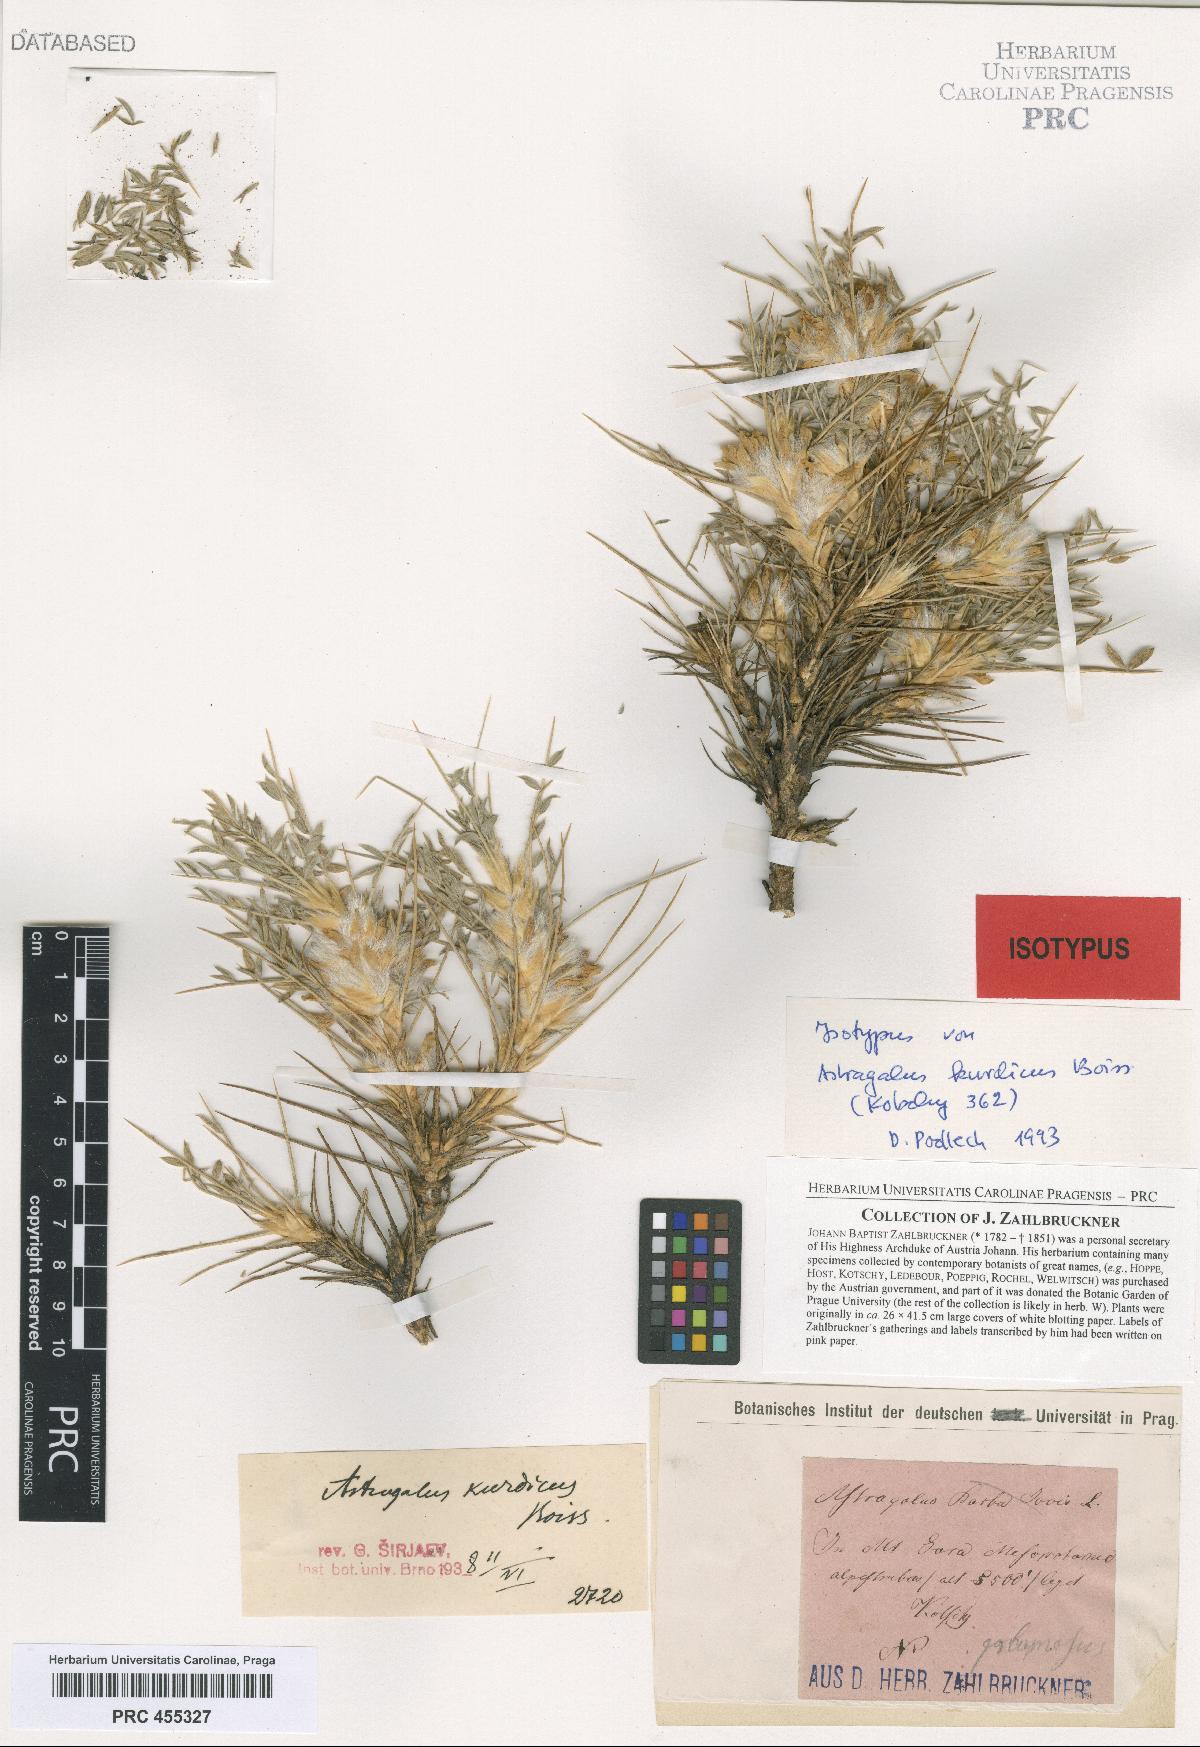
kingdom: Plantae
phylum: Tracheophyta
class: Magnoliopsida
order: Fabales
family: Fabaceae
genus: Astragalus
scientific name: Astragalus kurdicus
